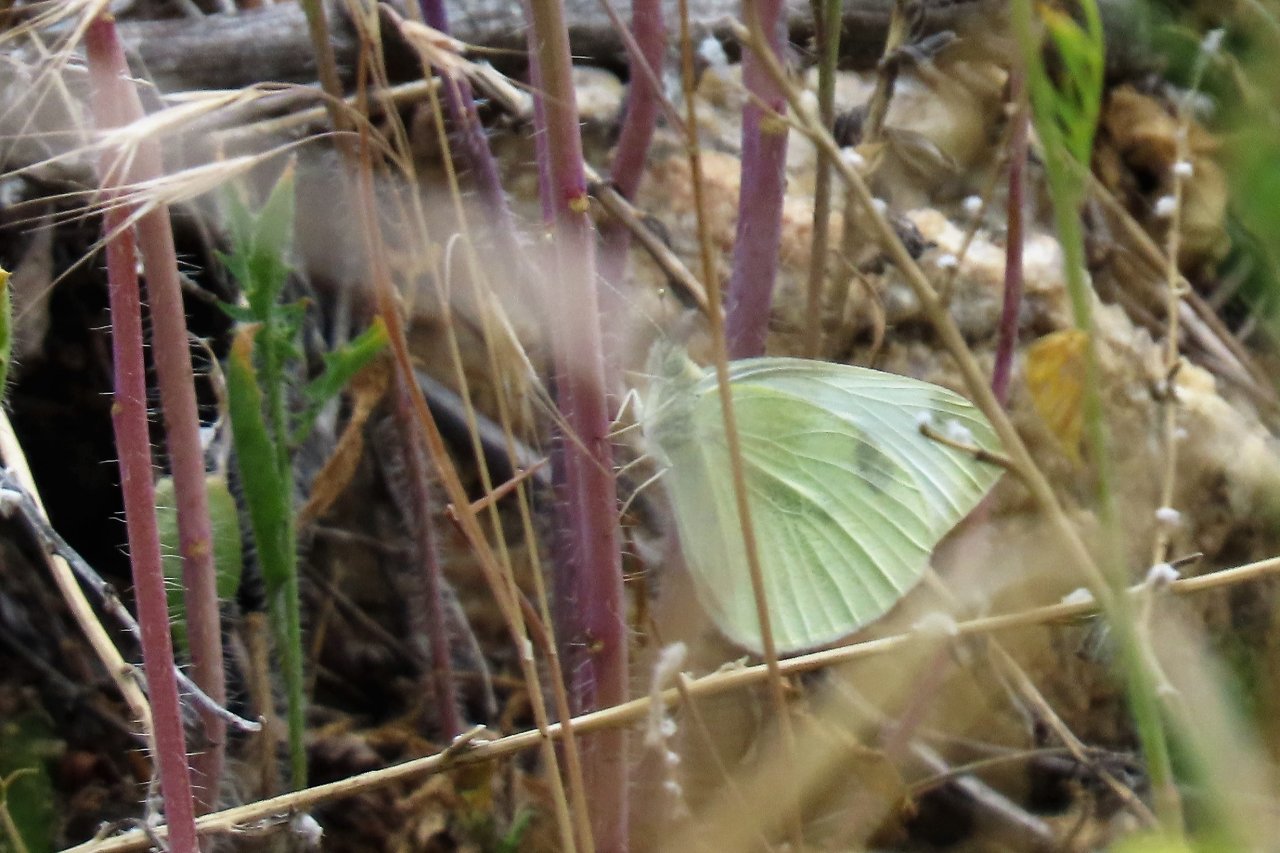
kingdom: Animalia
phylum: Arthropoda
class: Insecta
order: Lepidoptera
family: Pieridae
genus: Pieris
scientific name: Pieris rapae
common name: Cabbage White
